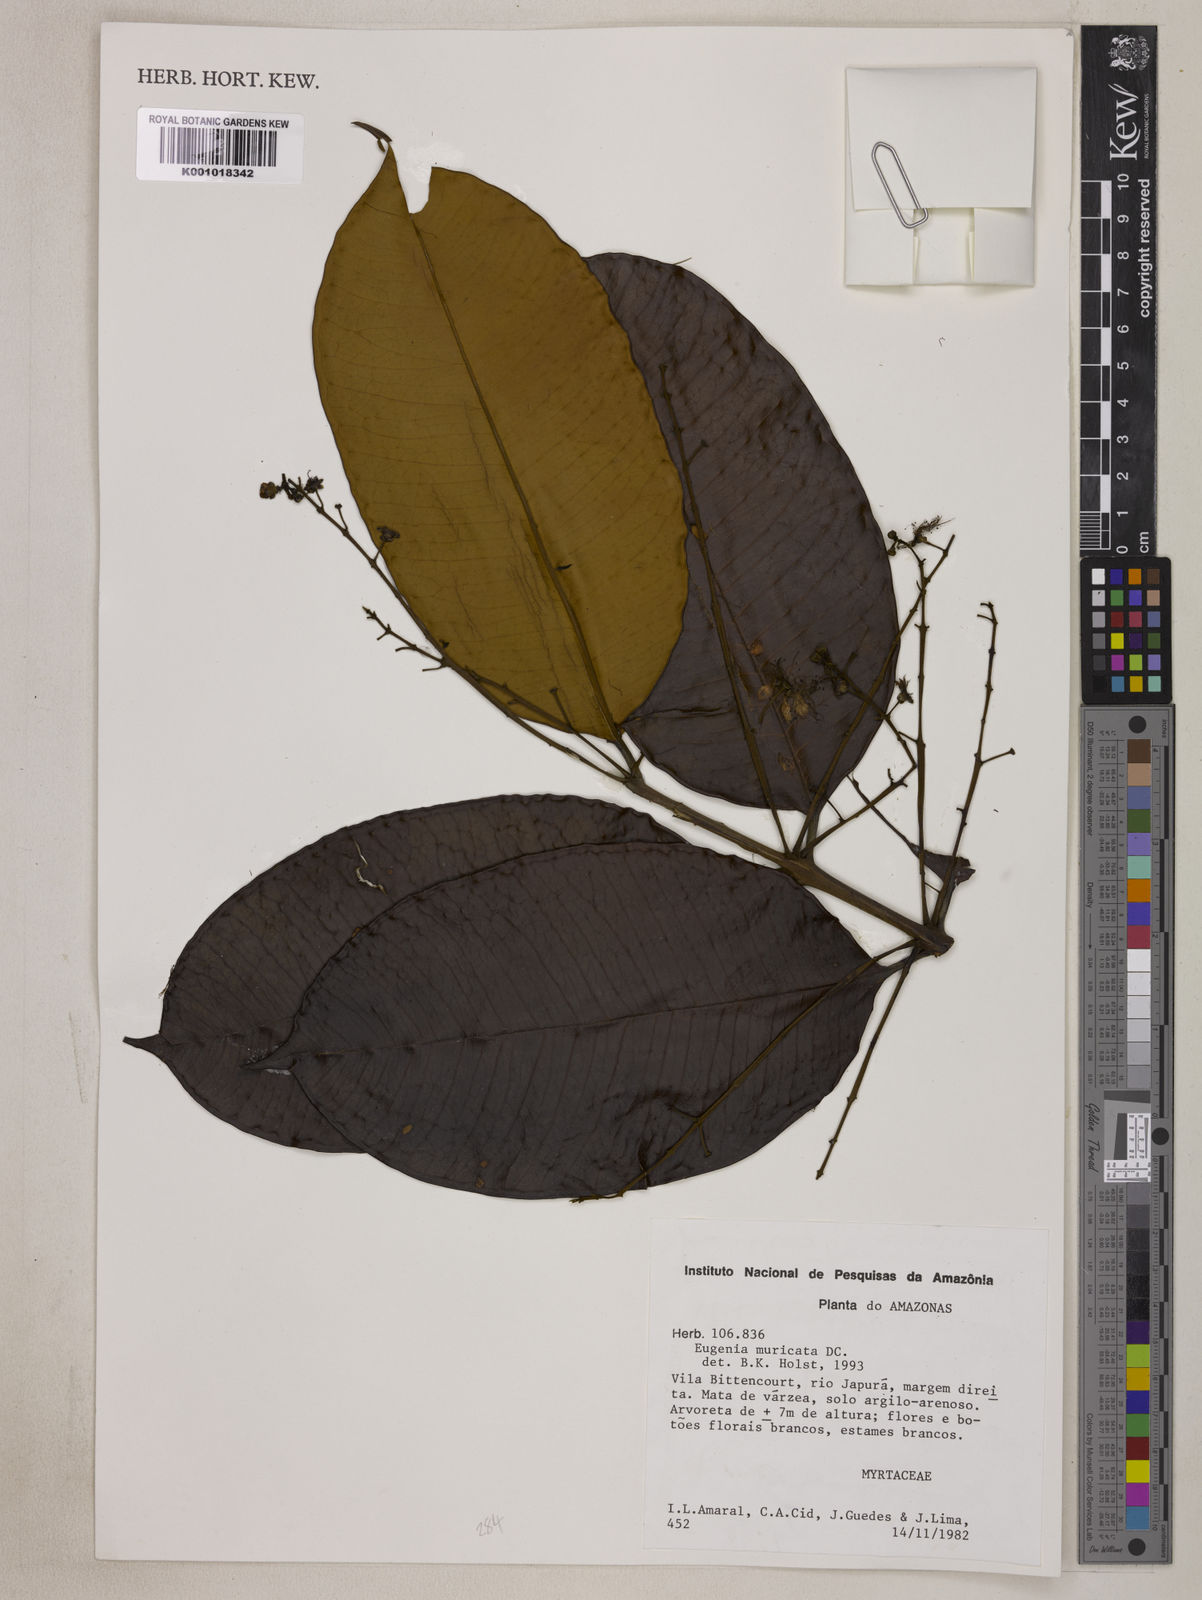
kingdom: Plantae
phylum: Tracheophyta
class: Magnoliopsida
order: Myrtales
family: Myrtaceae
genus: Eugenia
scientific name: Eugenia muricata
